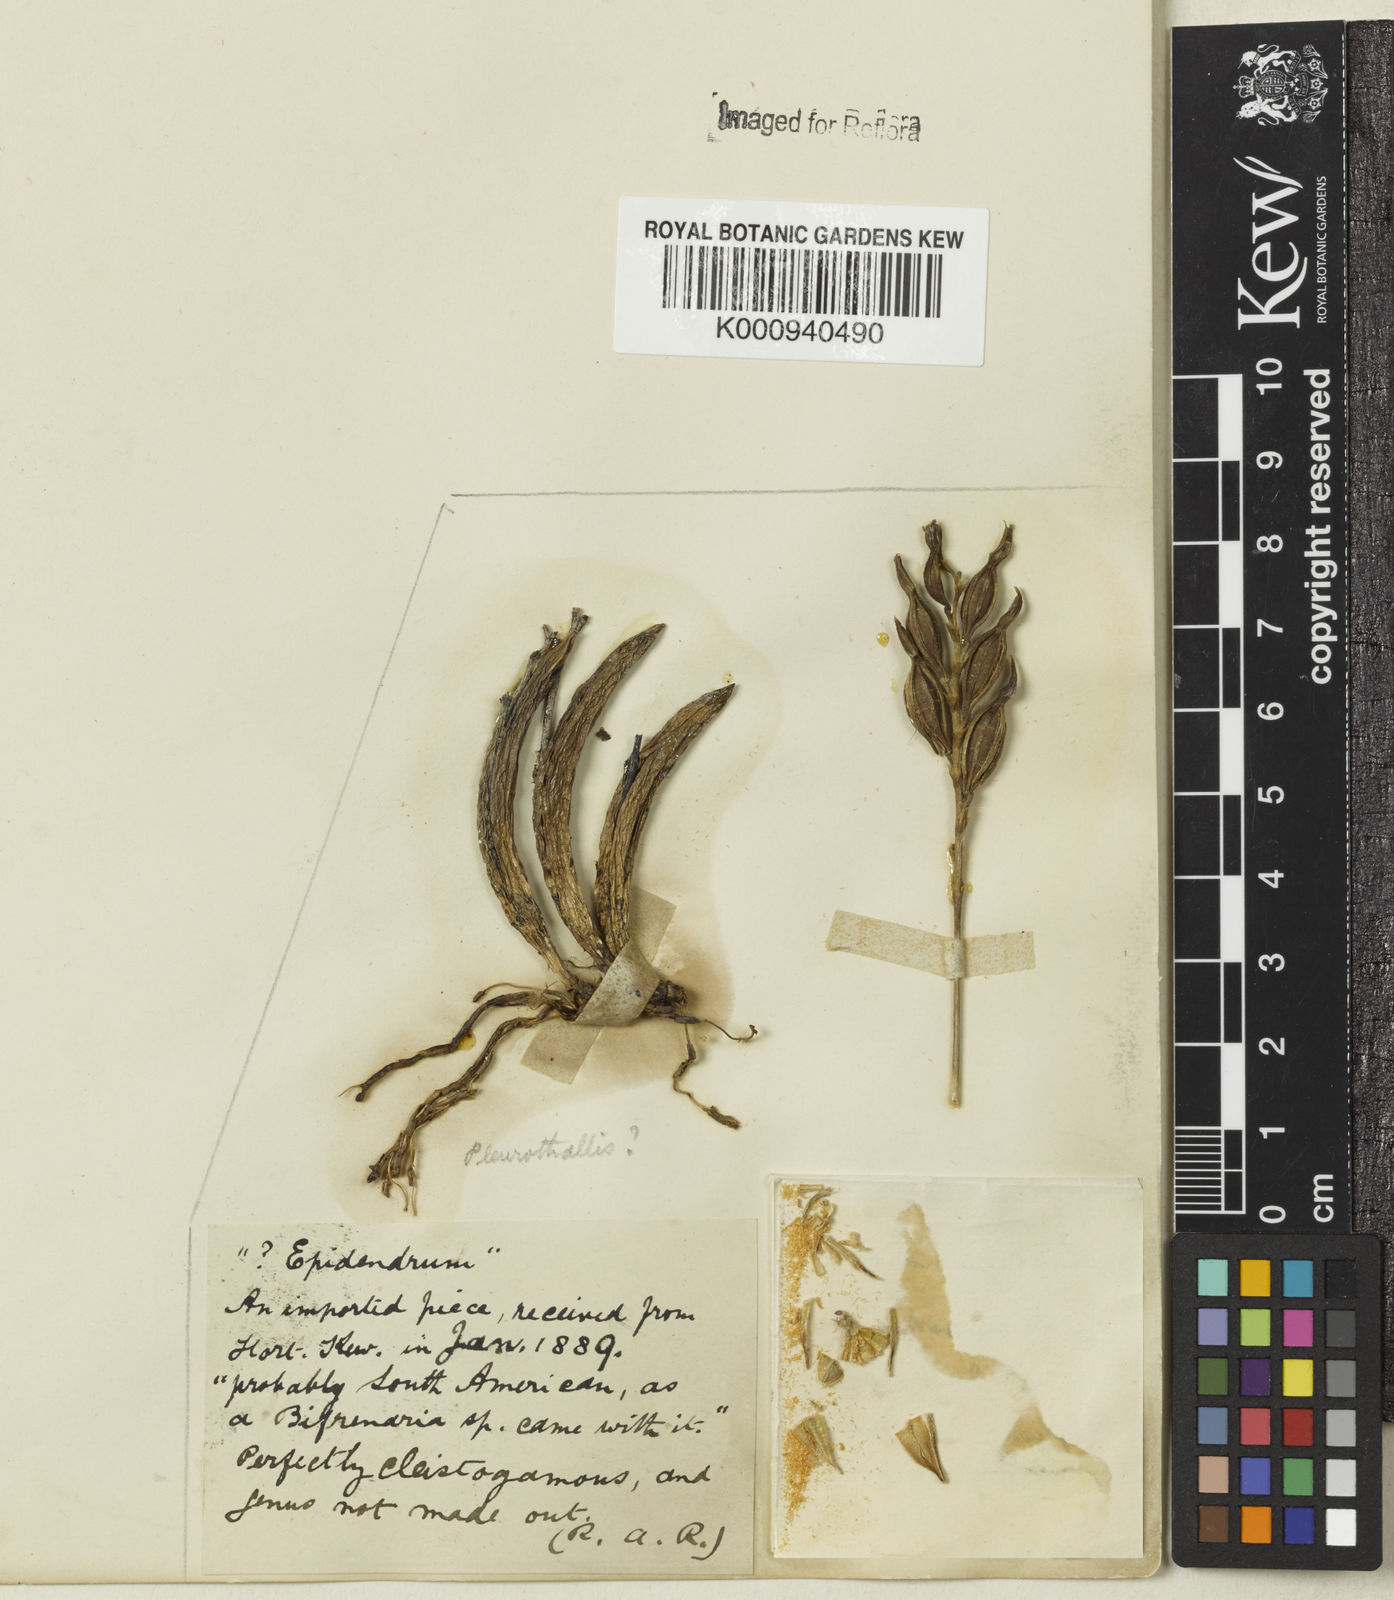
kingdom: Plantae
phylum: Tracheophyta
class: Liliopsida
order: Asparagales
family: Orchidaceae
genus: Acianthera
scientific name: Acianthera teres
